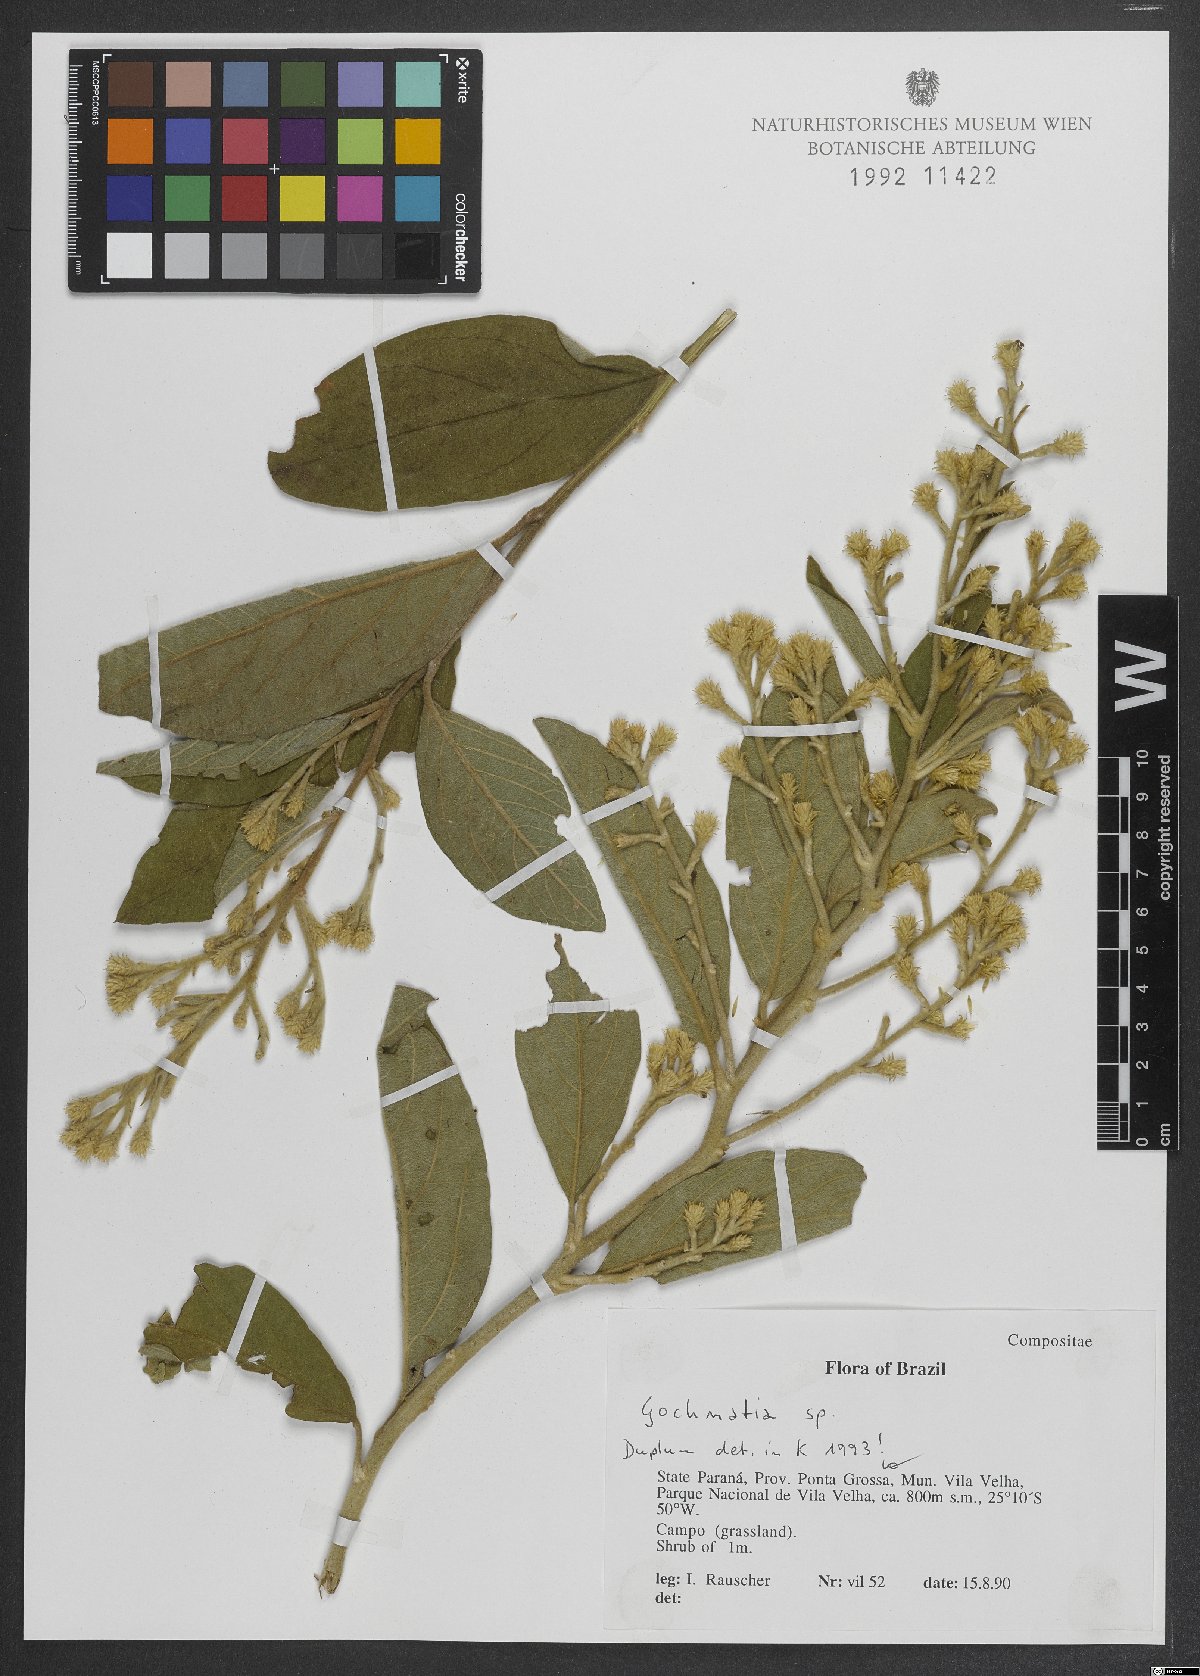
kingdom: Plantae
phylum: Tracheophyta
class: Magnoliopsida
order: Asterales
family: Asteraceae
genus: Gochnatia
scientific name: Gochnatia
